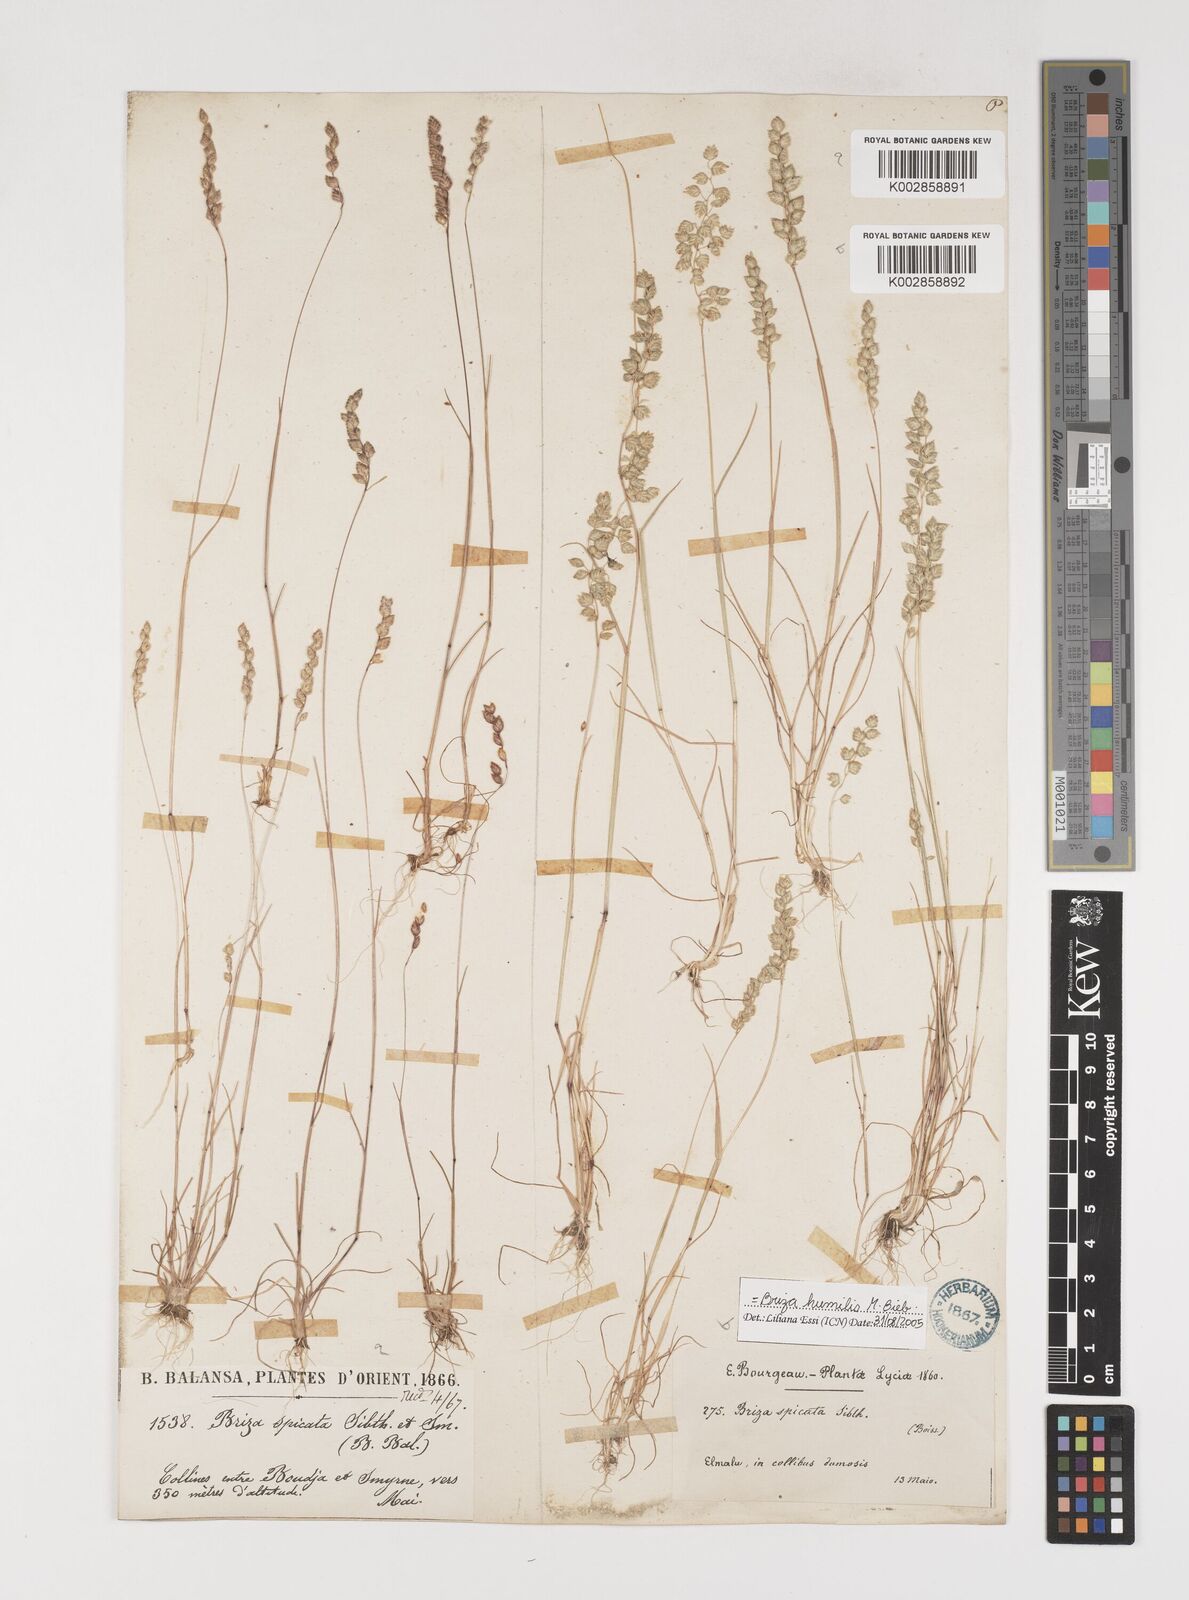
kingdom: Plantae
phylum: Tracheophyta
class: Liliopsida
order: Poales
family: Poaceae
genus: Briza
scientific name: Briza humilis
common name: Spiked quaking grass
